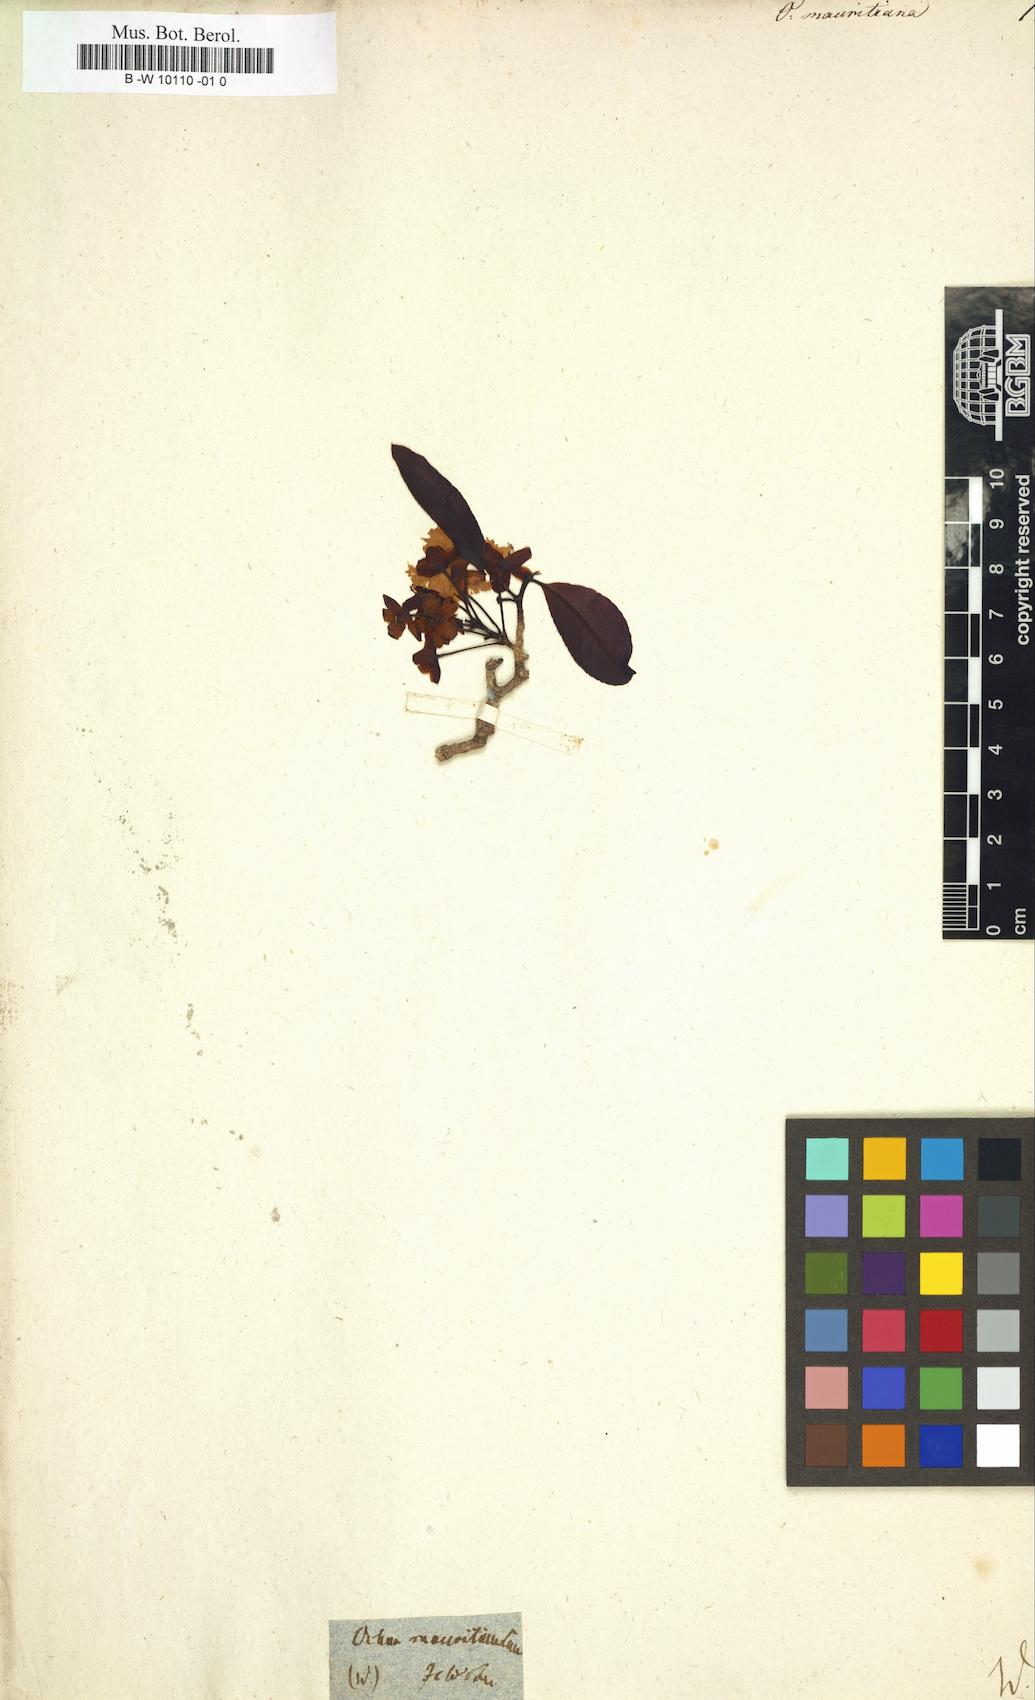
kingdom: Plantae
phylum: Tracheophyta
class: Magnoliopsida
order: Malpighiales
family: Ochnaceae
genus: Ochna
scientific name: Ochna mauritiana
